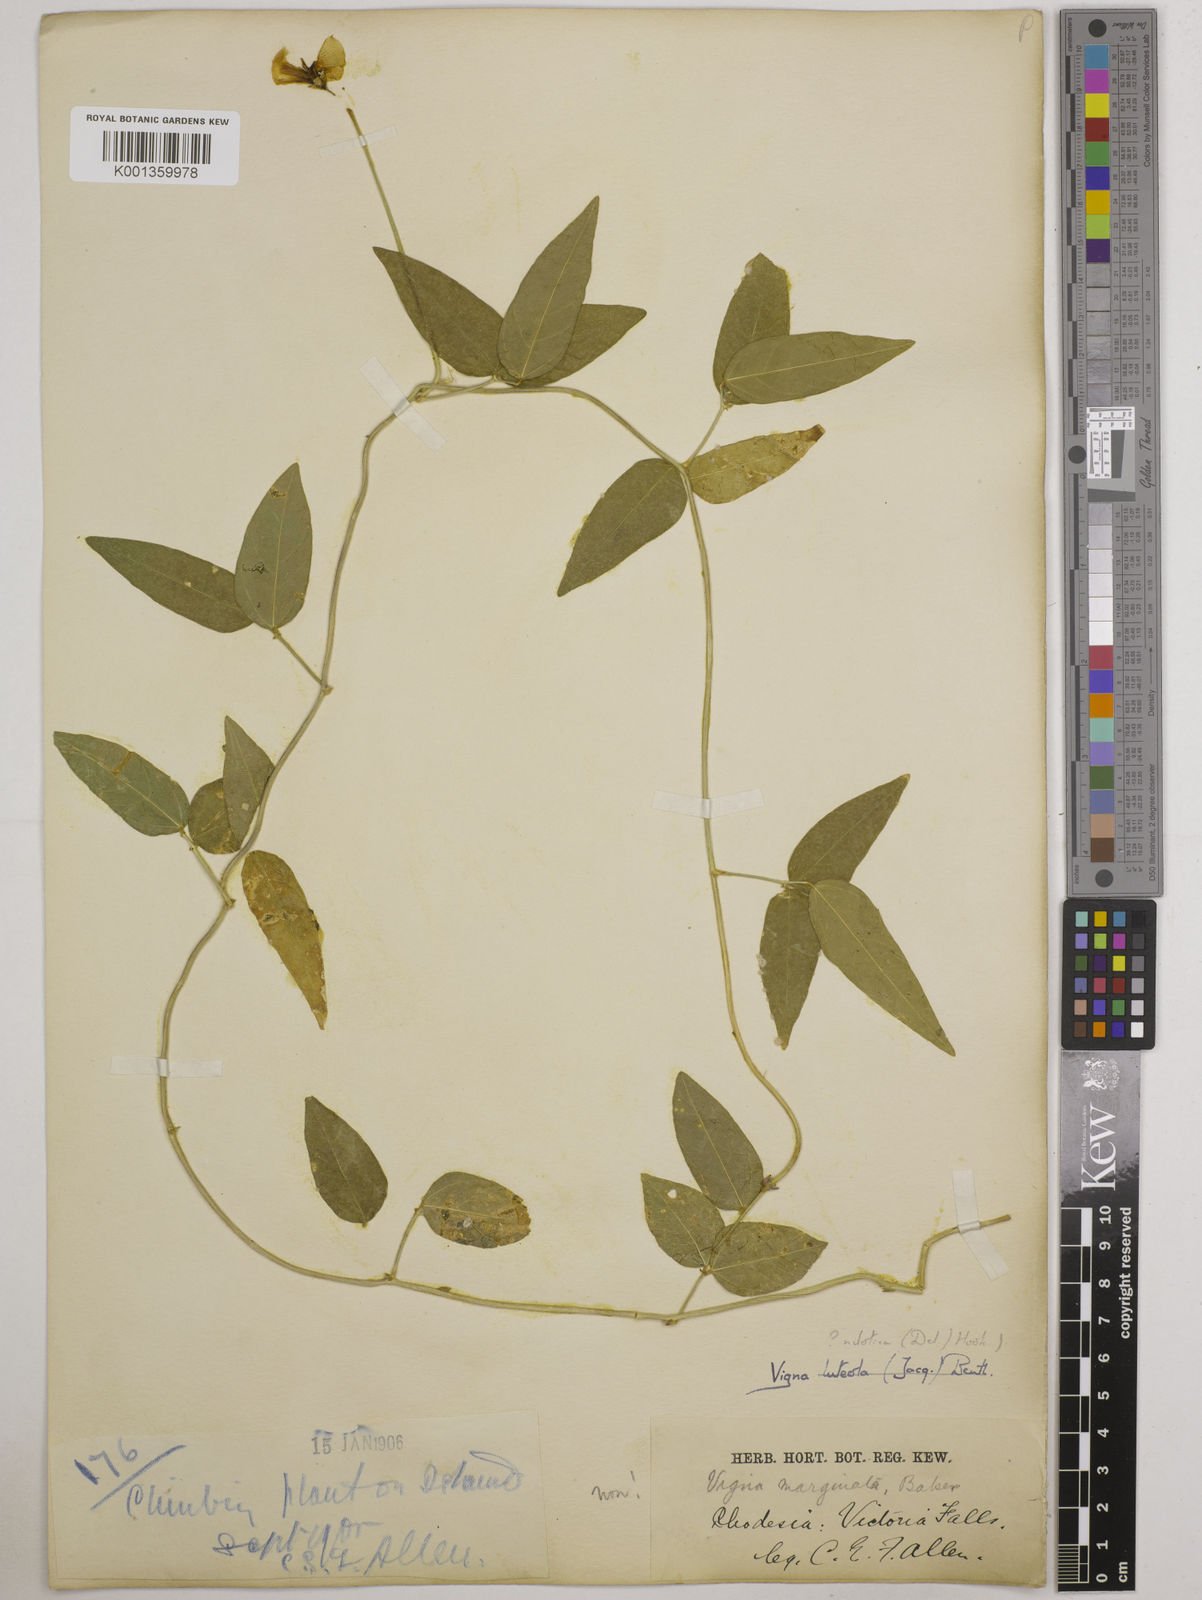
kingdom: Plantae
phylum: Tracheophyta
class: Magnoliopsida
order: Fabales
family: Fabaceae
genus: Vigna
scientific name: Vigna luteola
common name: Hairypod cowpea
